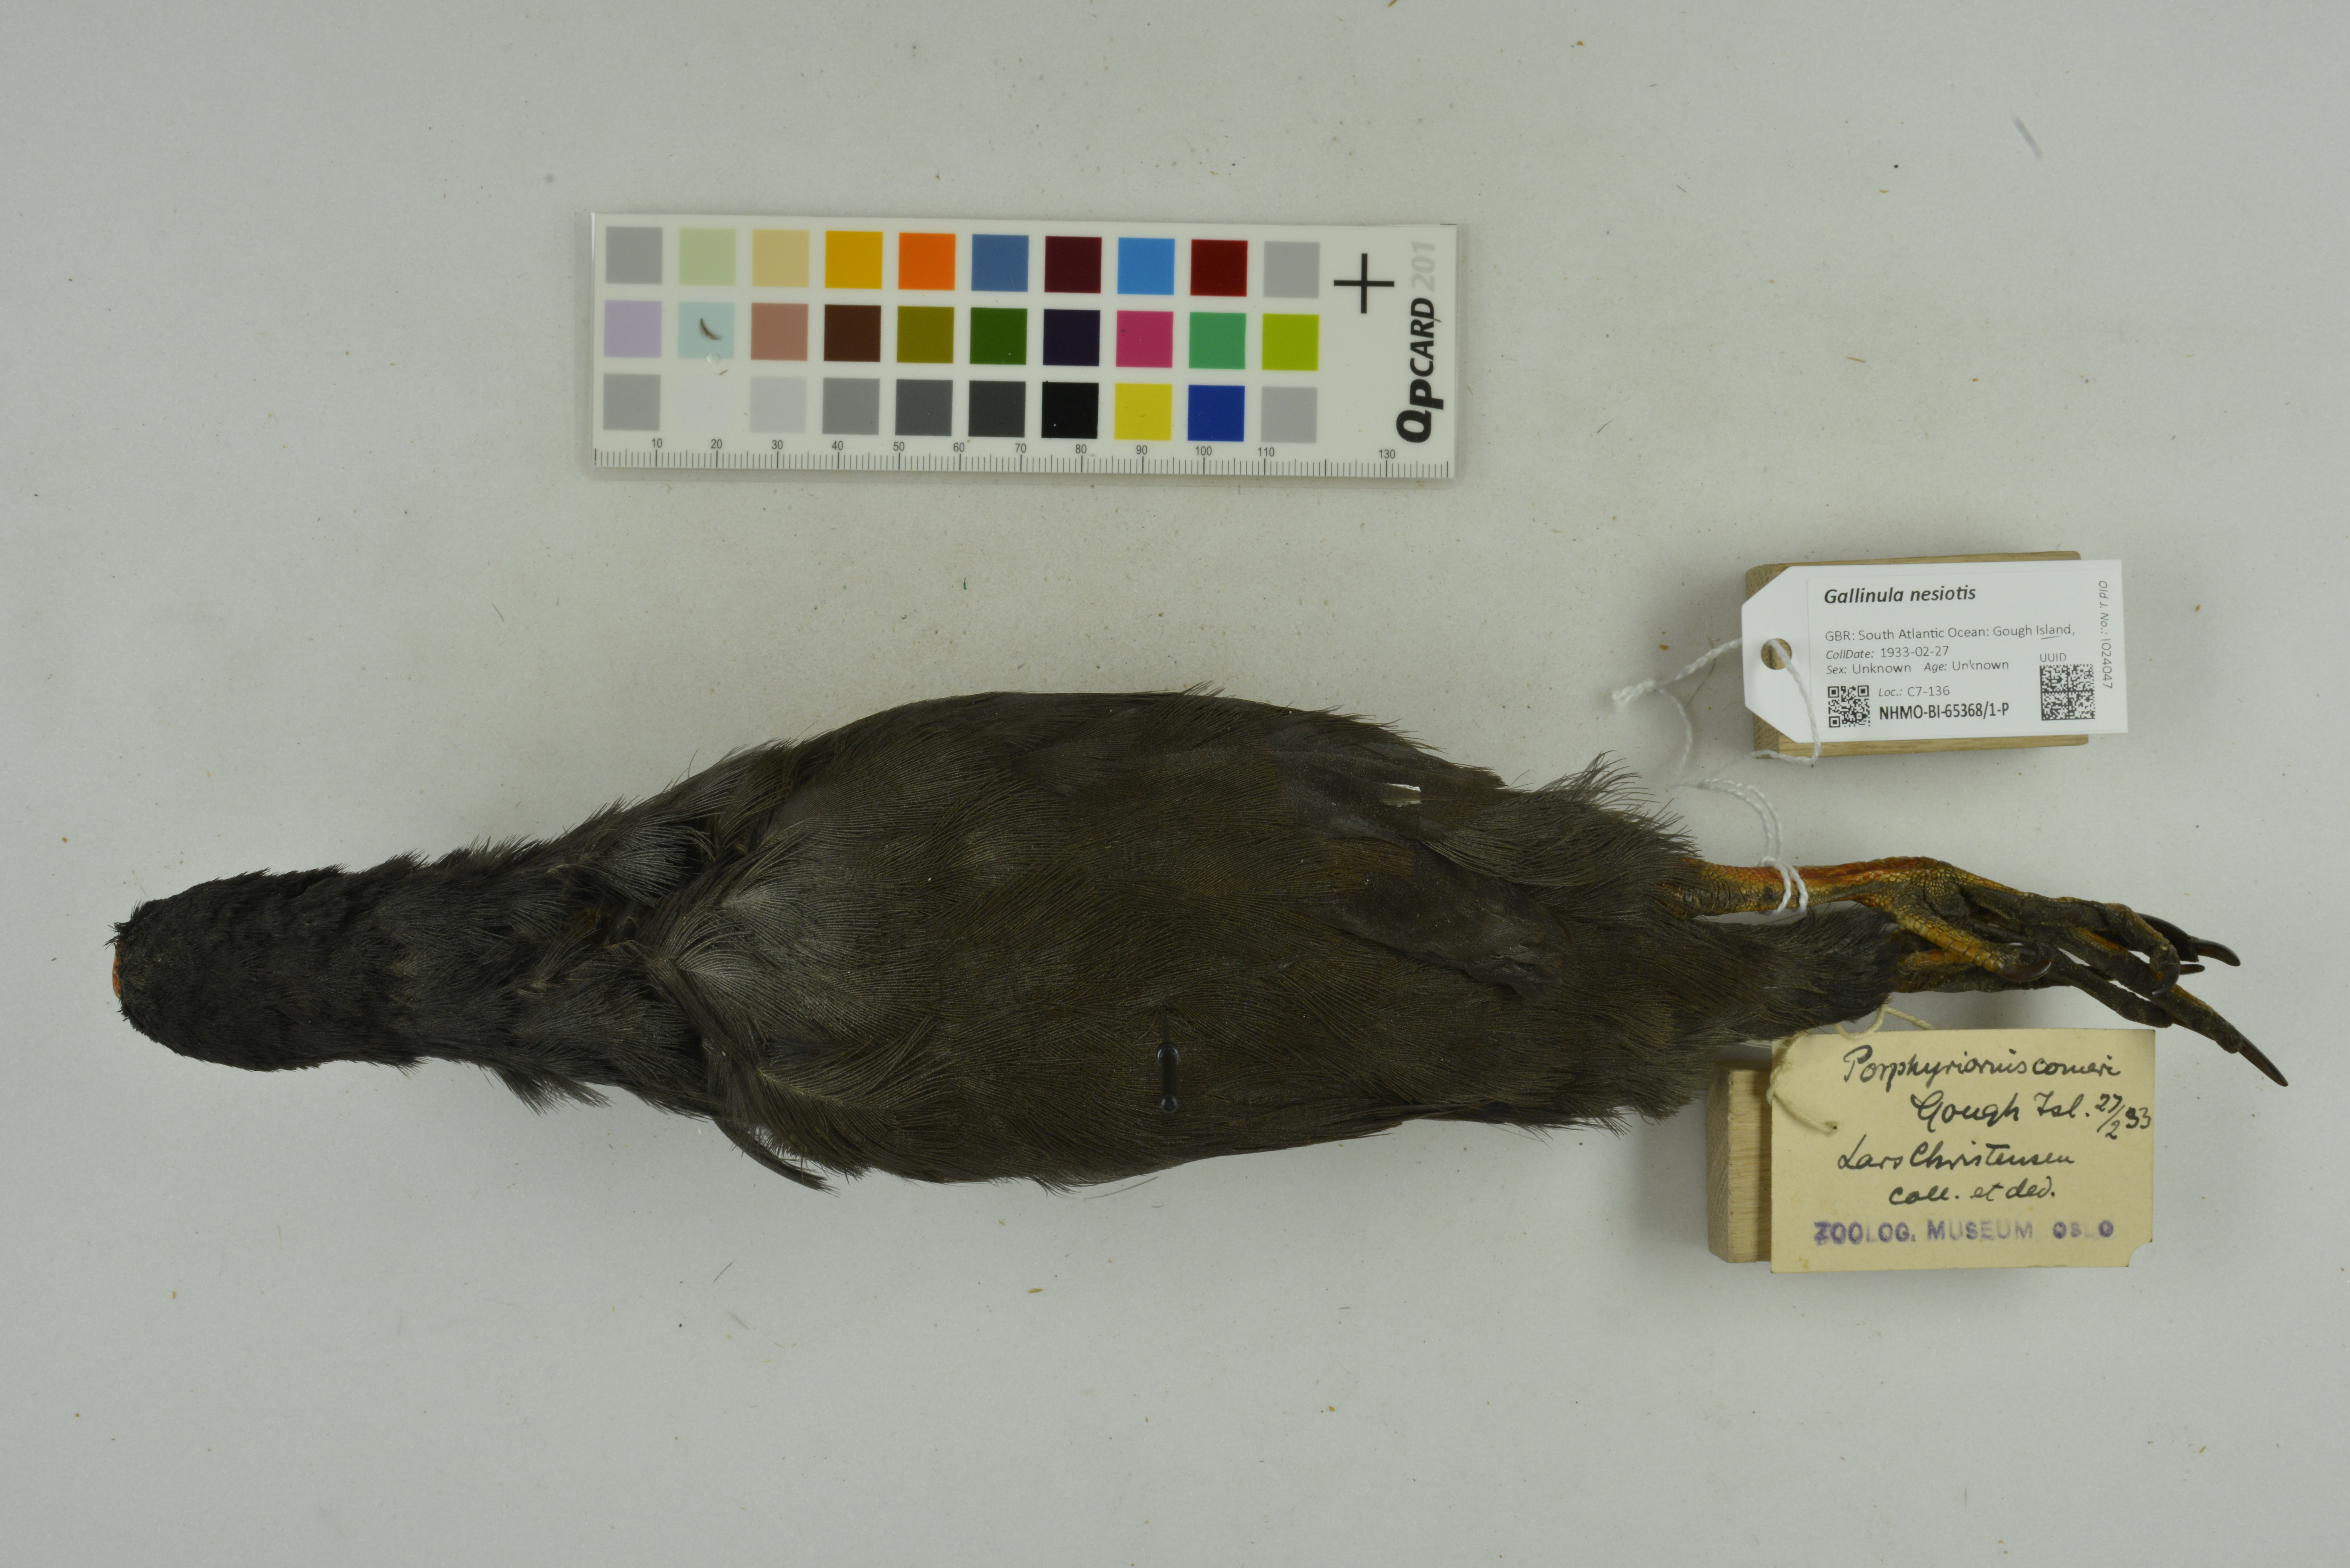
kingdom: Animalia
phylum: Chordata
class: Aves
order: Gruiformes
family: Rallidae
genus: Gallinula
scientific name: Gallinula comeri
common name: Gough moorhen
